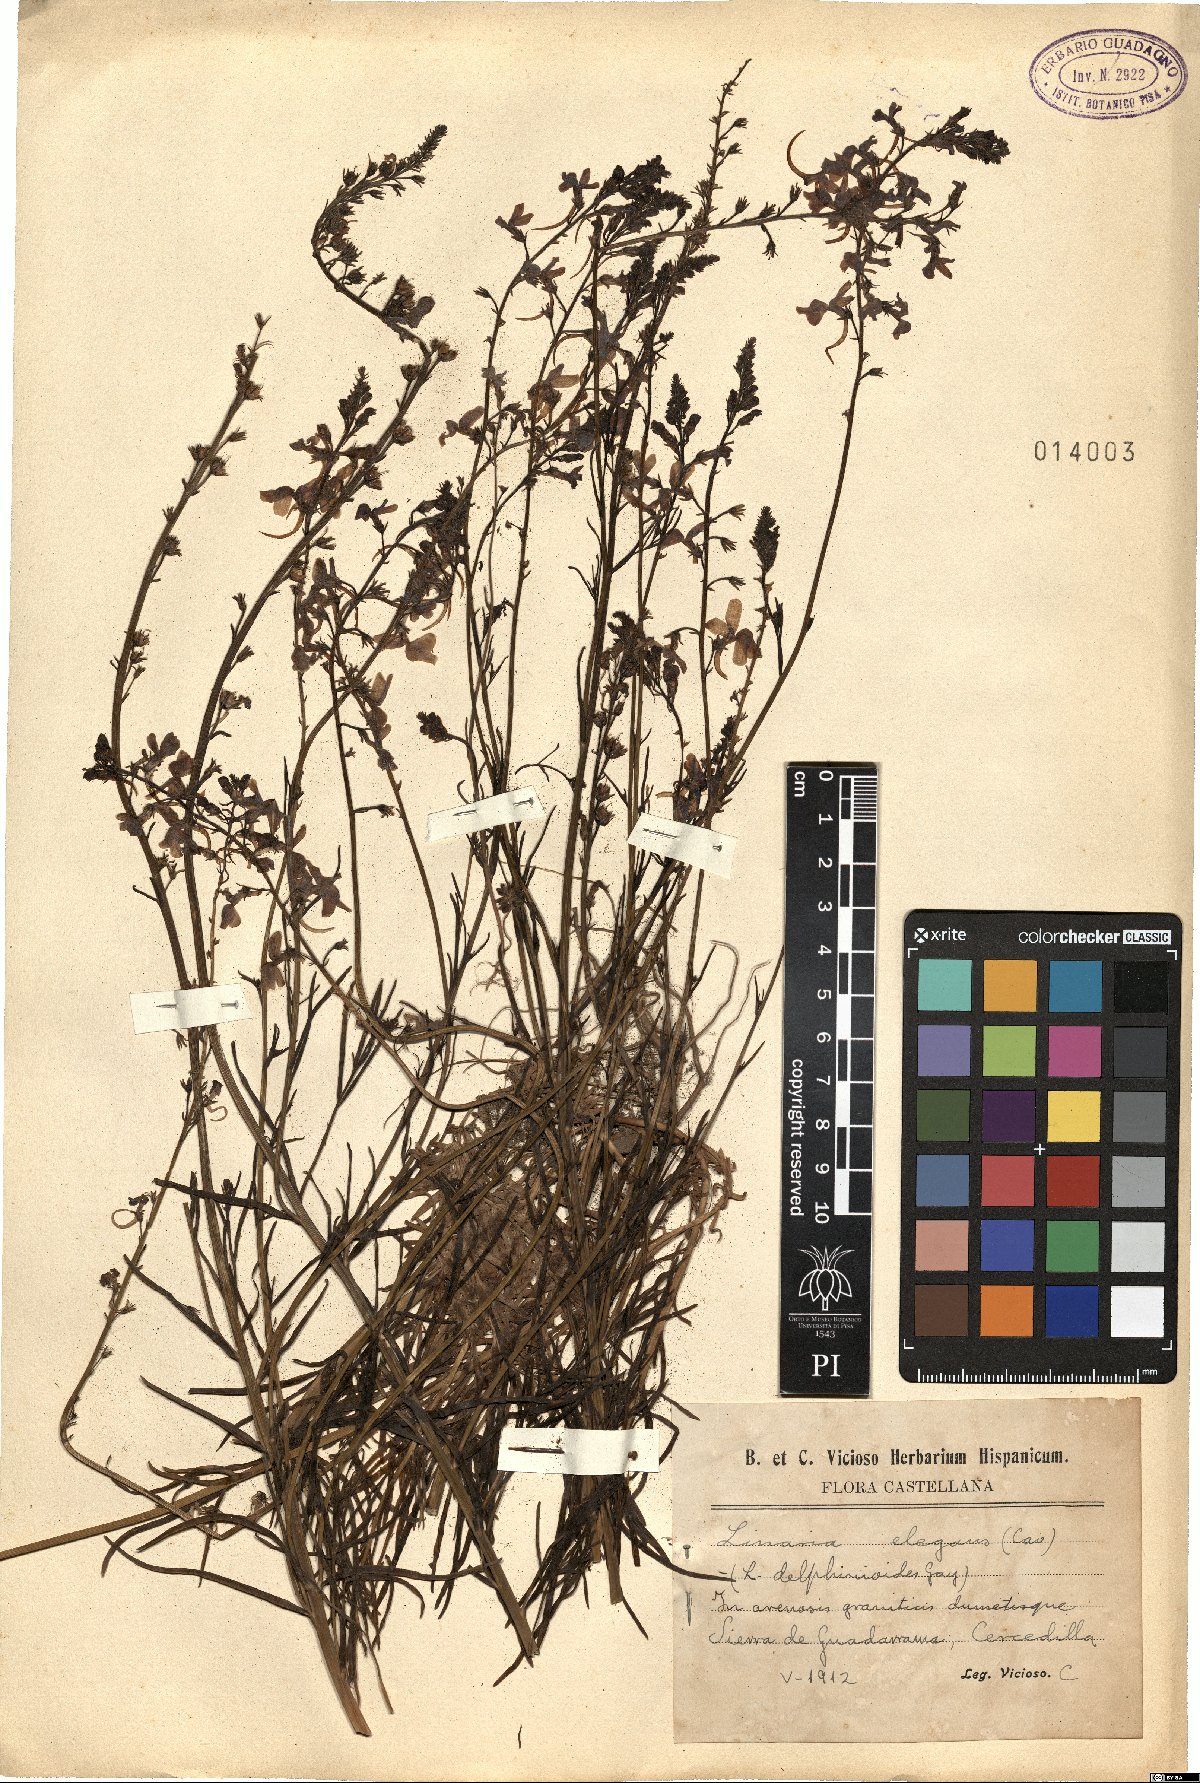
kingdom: Plantae
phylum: Tracheophyta
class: Magnoliopsida
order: Lamiales
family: Plantaginaceae
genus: Linaria
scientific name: Linaria elegans
